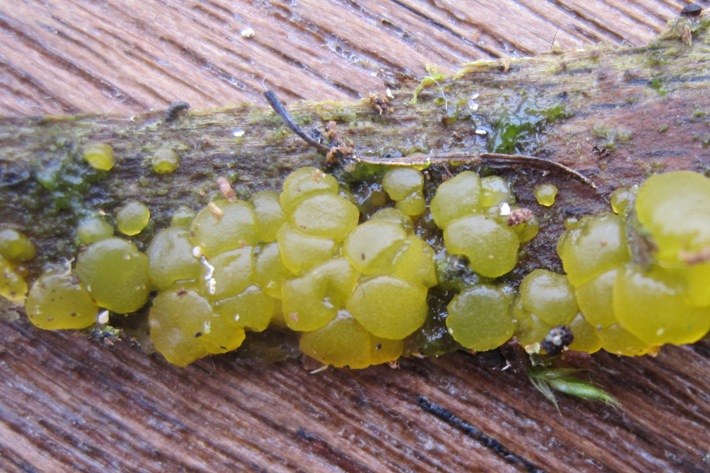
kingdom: Fungi
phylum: Basidiomycota
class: Dacrymycetes
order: Dacrymycetales
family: Dacrymycetaceae
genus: Dacrymyces
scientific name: Dacrymyces lacrymalis
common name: rynket tåresvamp
